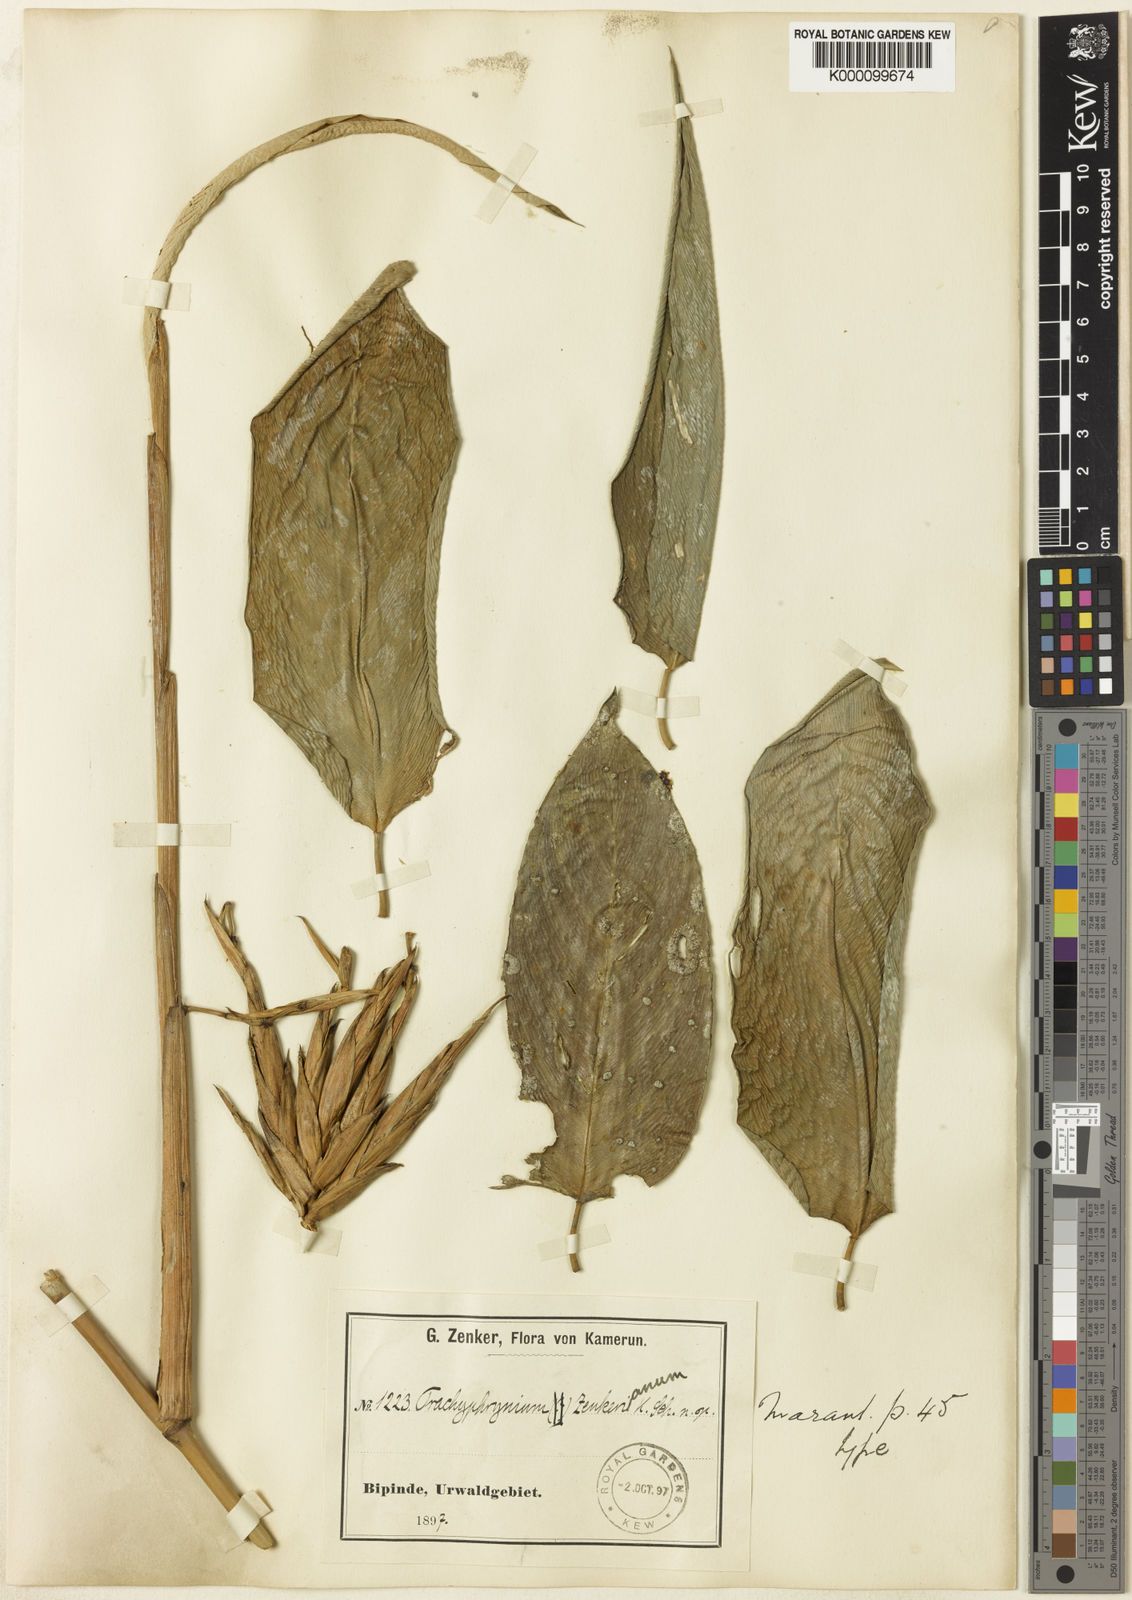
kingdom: Plantae
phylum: Tracheophyta
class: Liliopsida
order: Zingiberales
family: Marantaceae
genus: Hypselodelphys
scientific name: Hypselodelphys zenkeriana
